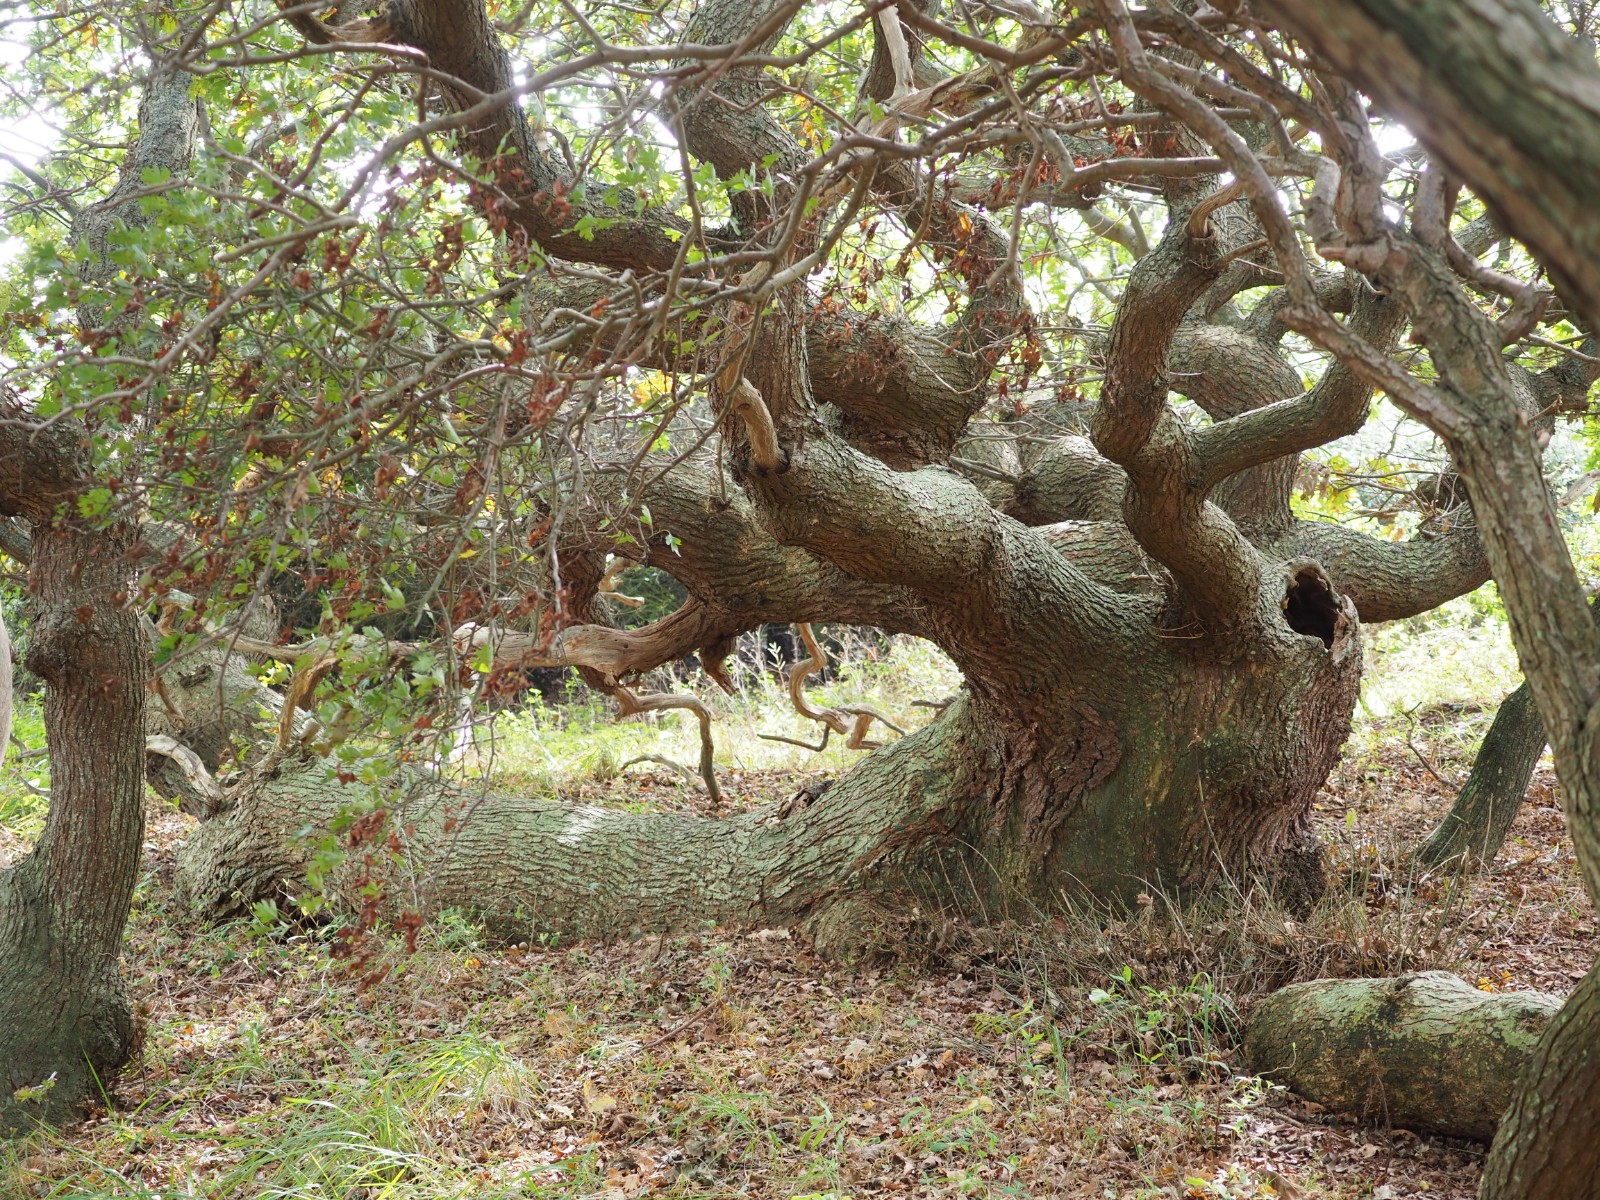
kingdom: Fungi
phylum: Basidiomycota
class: Agaricomycetes
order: Boletales
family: Boletaceae
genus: Xerocomellus
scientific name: Xerocomellus porosporus
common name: hvidsprukken rørhat
